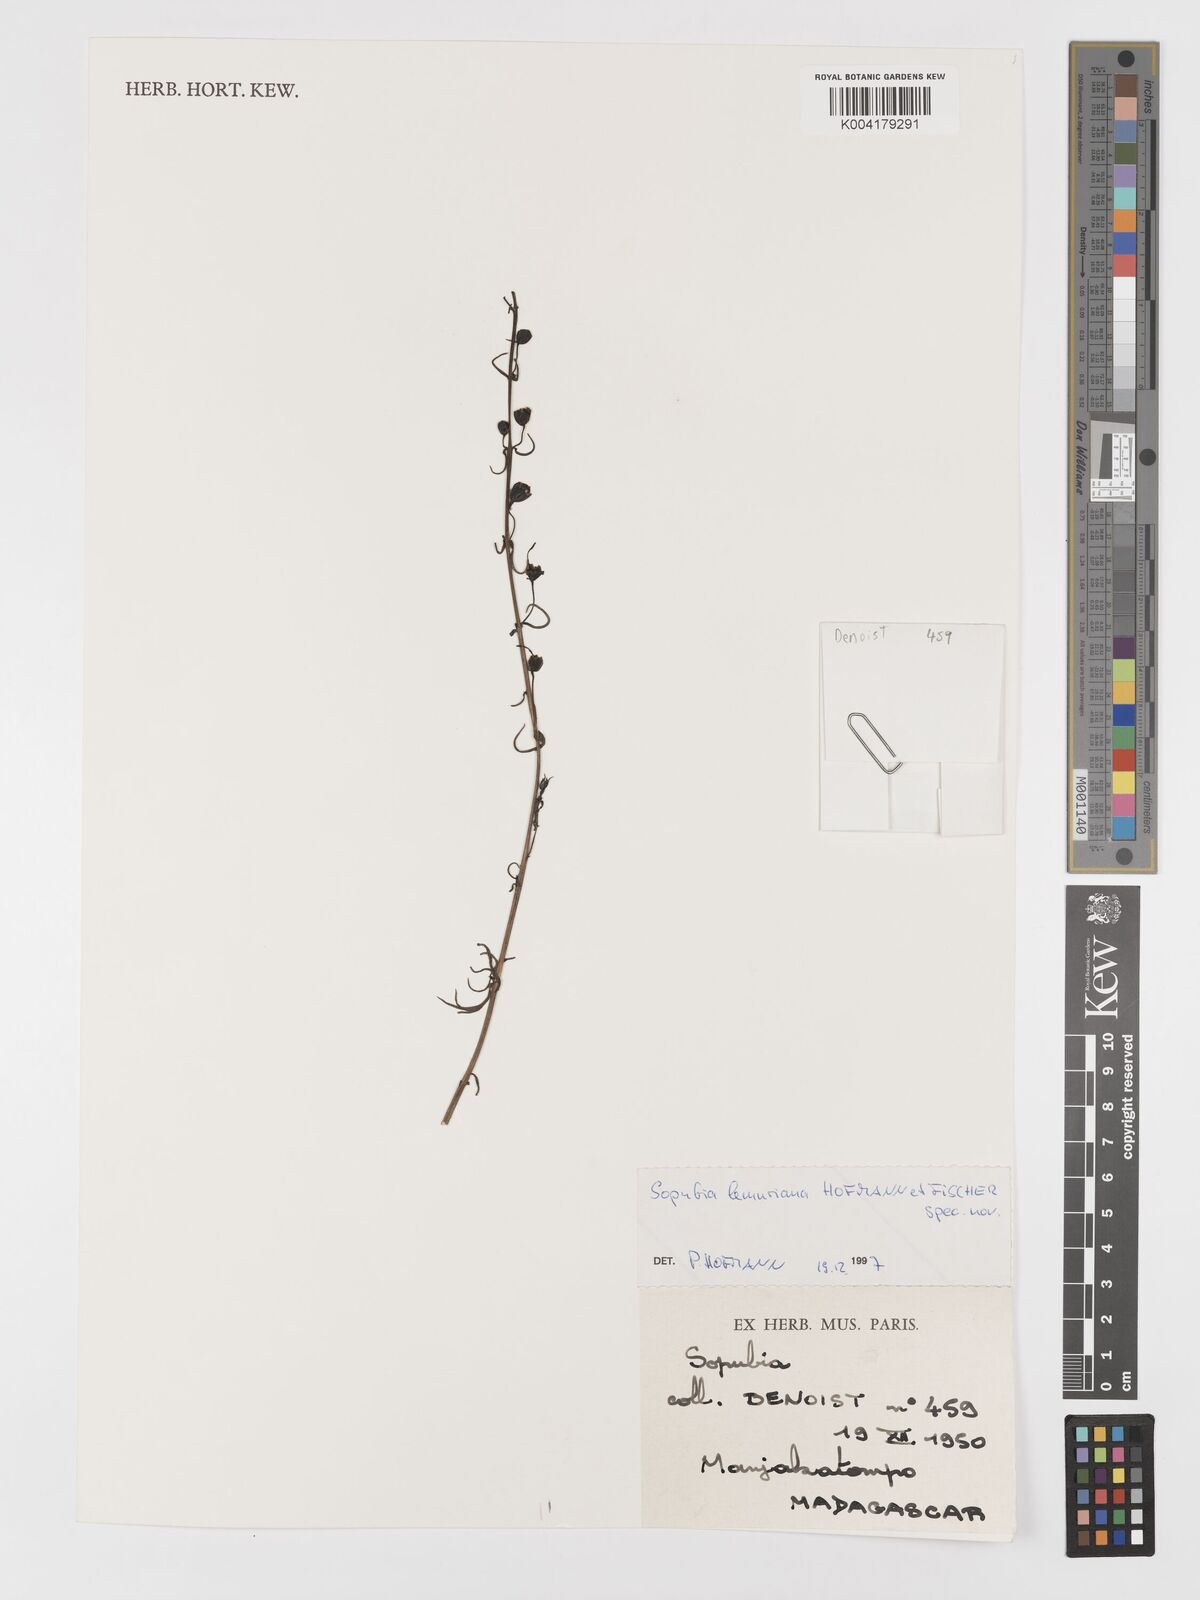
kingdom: Plantae
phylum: Tracheophyta
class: Magnoliopsida
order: Lamiales
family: Orobanchaceae
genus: Sopubia
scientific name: Sopubia lemuriana
